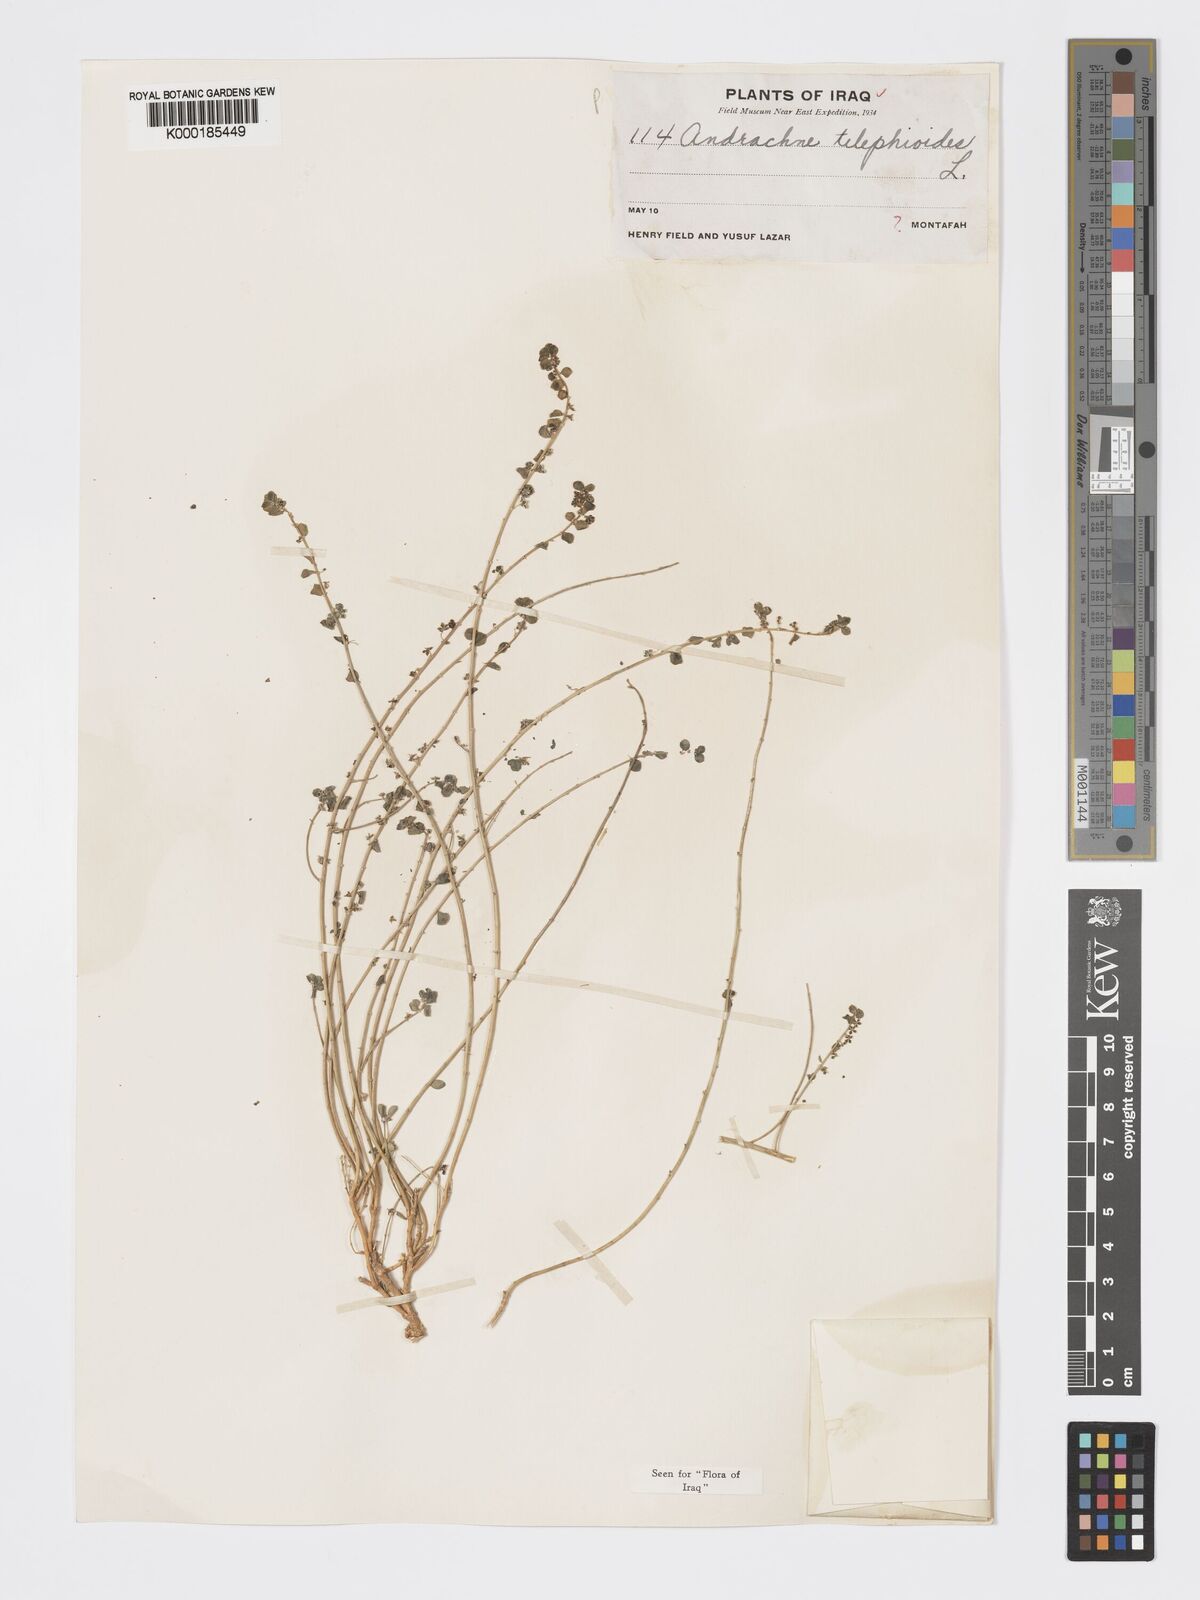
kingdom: Plantae
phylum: Tracheophyta
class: Magnoliopsida
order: Malpighiales
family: Phyllanthaceae
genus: Andrachne
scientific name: Andrachne telephioides
